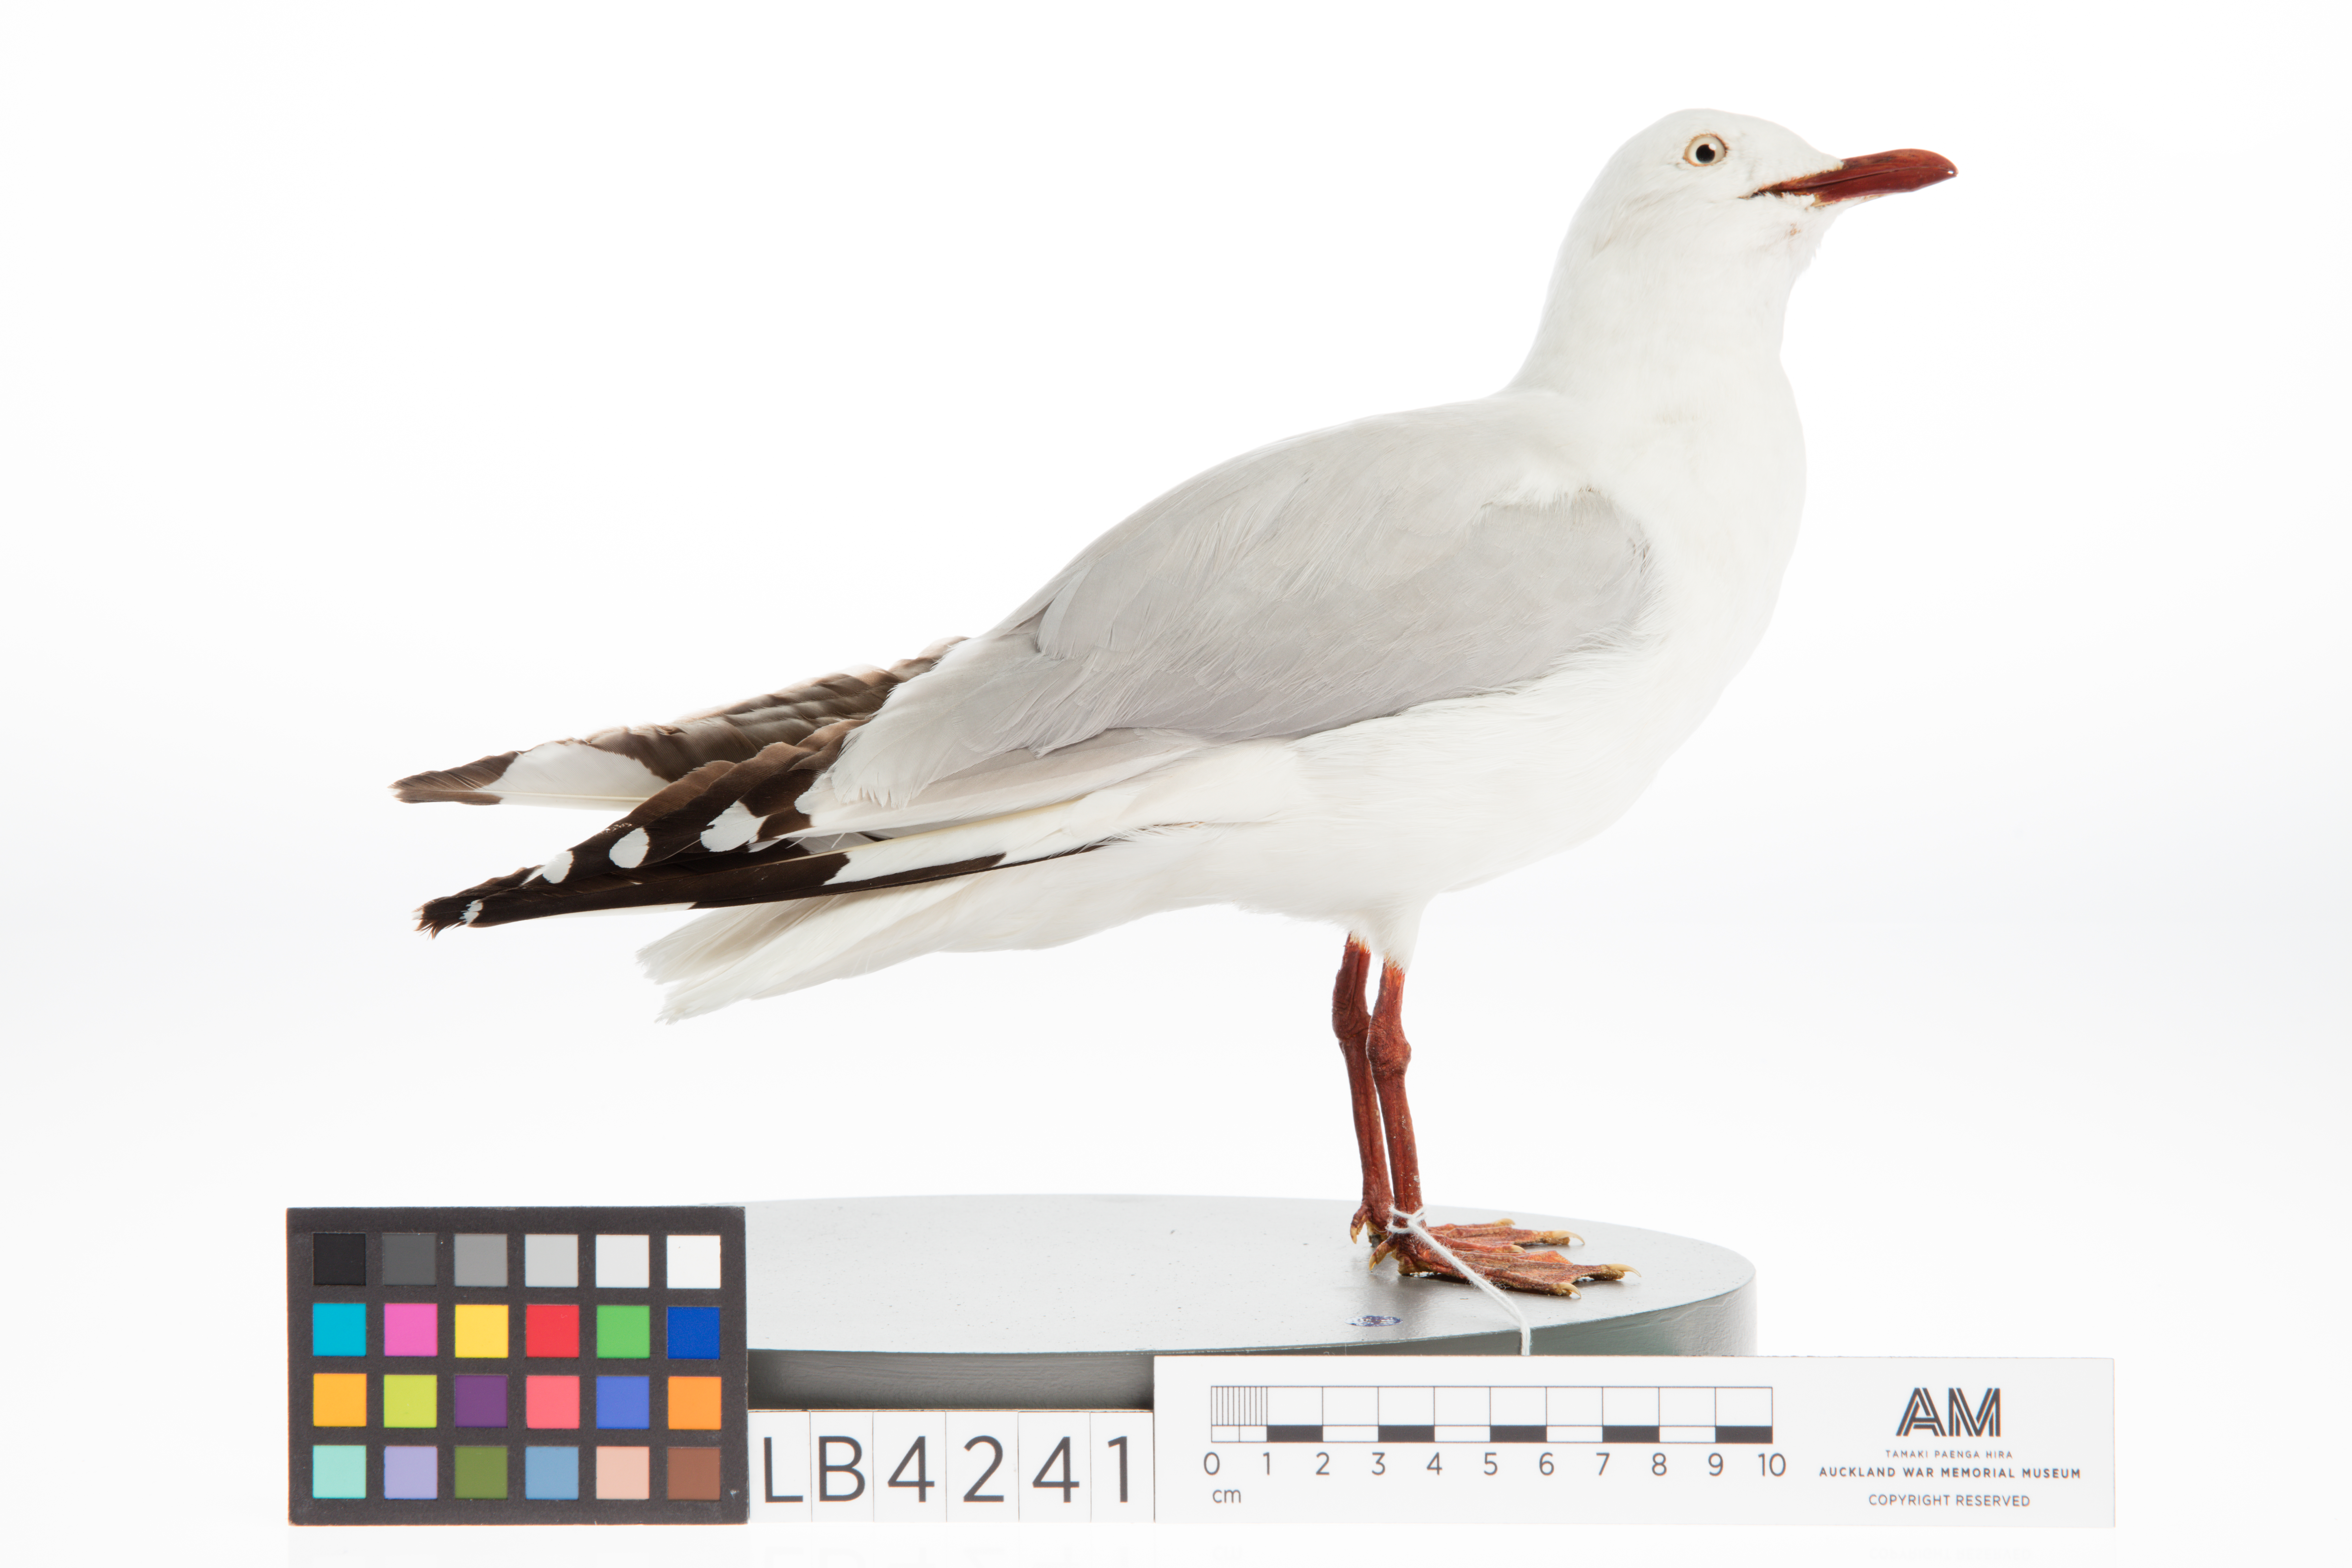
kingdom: Animalia
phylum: Chordata
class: Aves
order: Charadriiformes
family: Laridae
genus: Chroicocephalus
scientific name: Chroicocephalus novaehollandiae
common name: Silver gull
